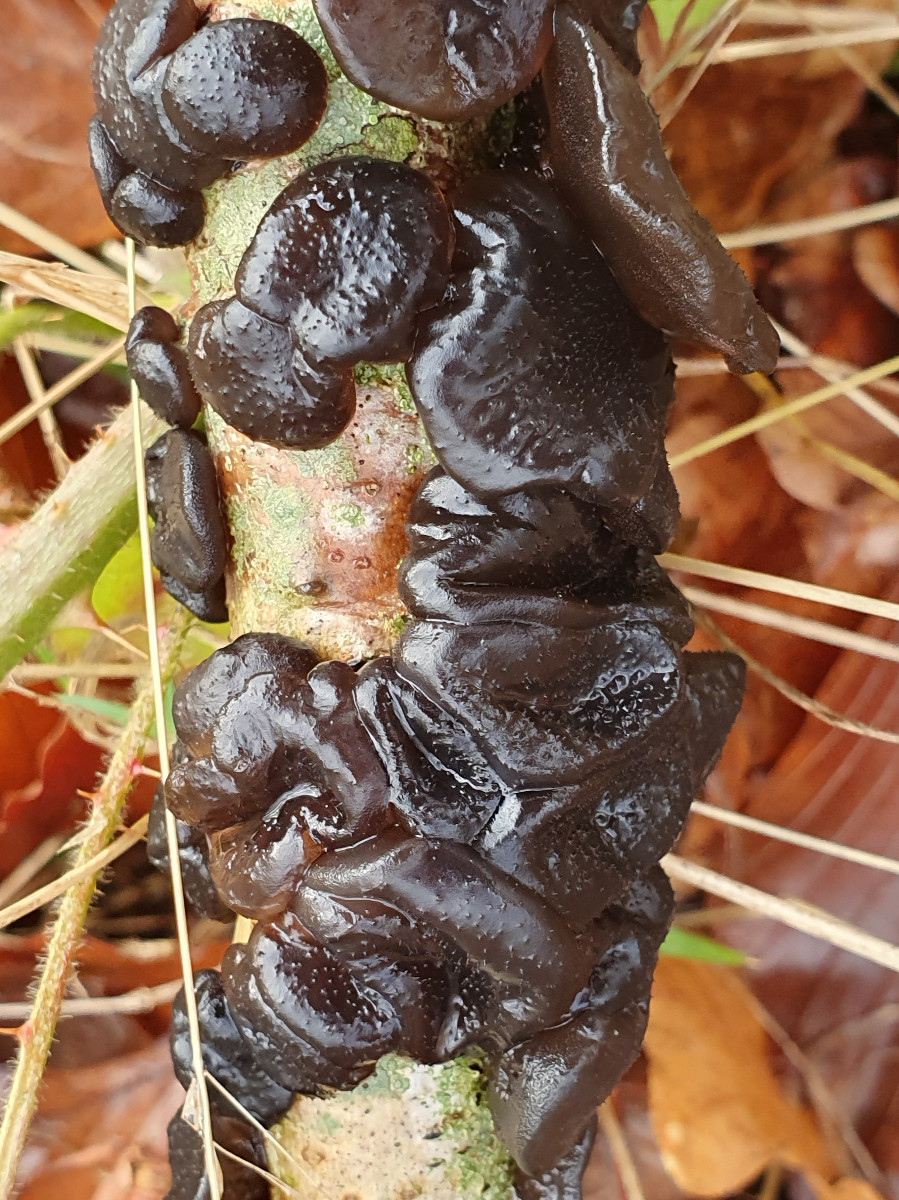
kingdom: Fungi
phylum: Basidiomycota
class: Agaricomycetes
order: Auriculariales
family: Auriculariaceae
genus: Exidia
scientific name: Exidia glandulosa
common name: ege-bævretop
